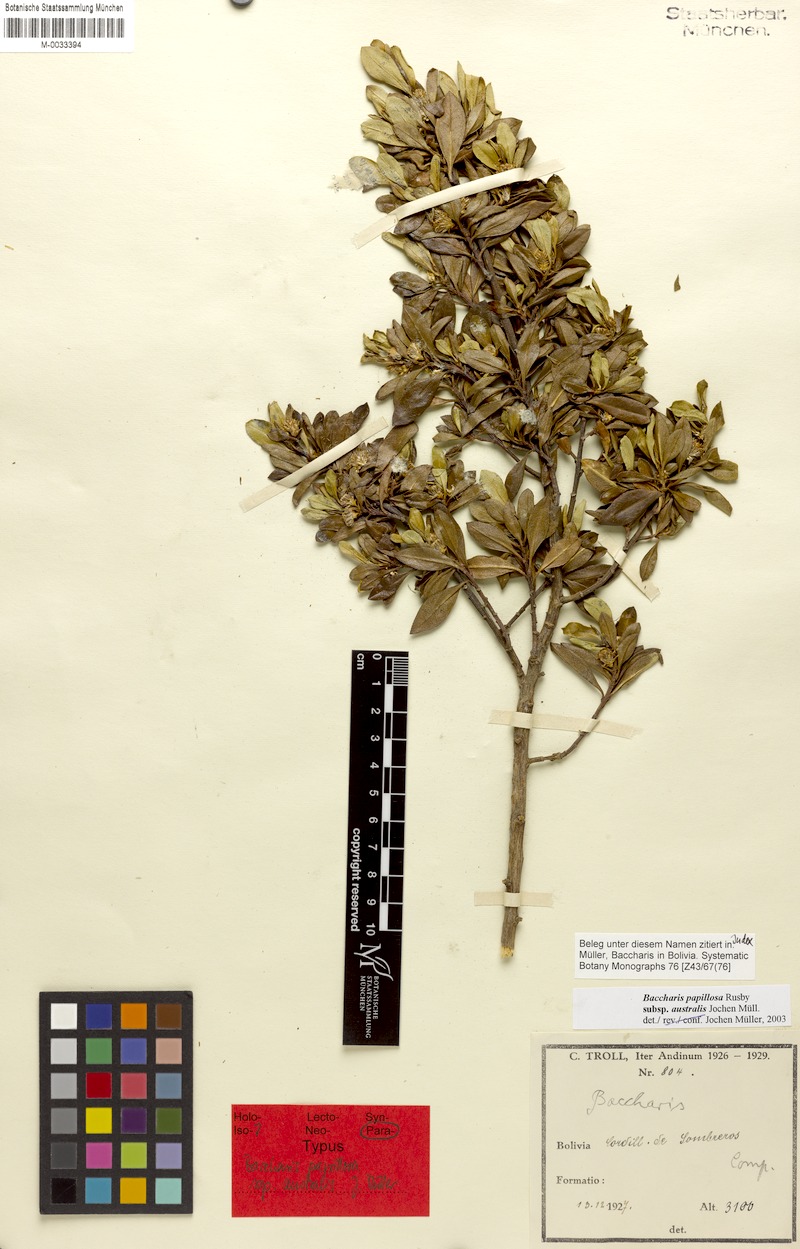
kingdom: Plantae
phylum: Tracheophyta
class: Magnoliopsida
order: Asterales
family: Asteraceae
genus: Baccharis
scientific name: Baccharis neoaustralis
